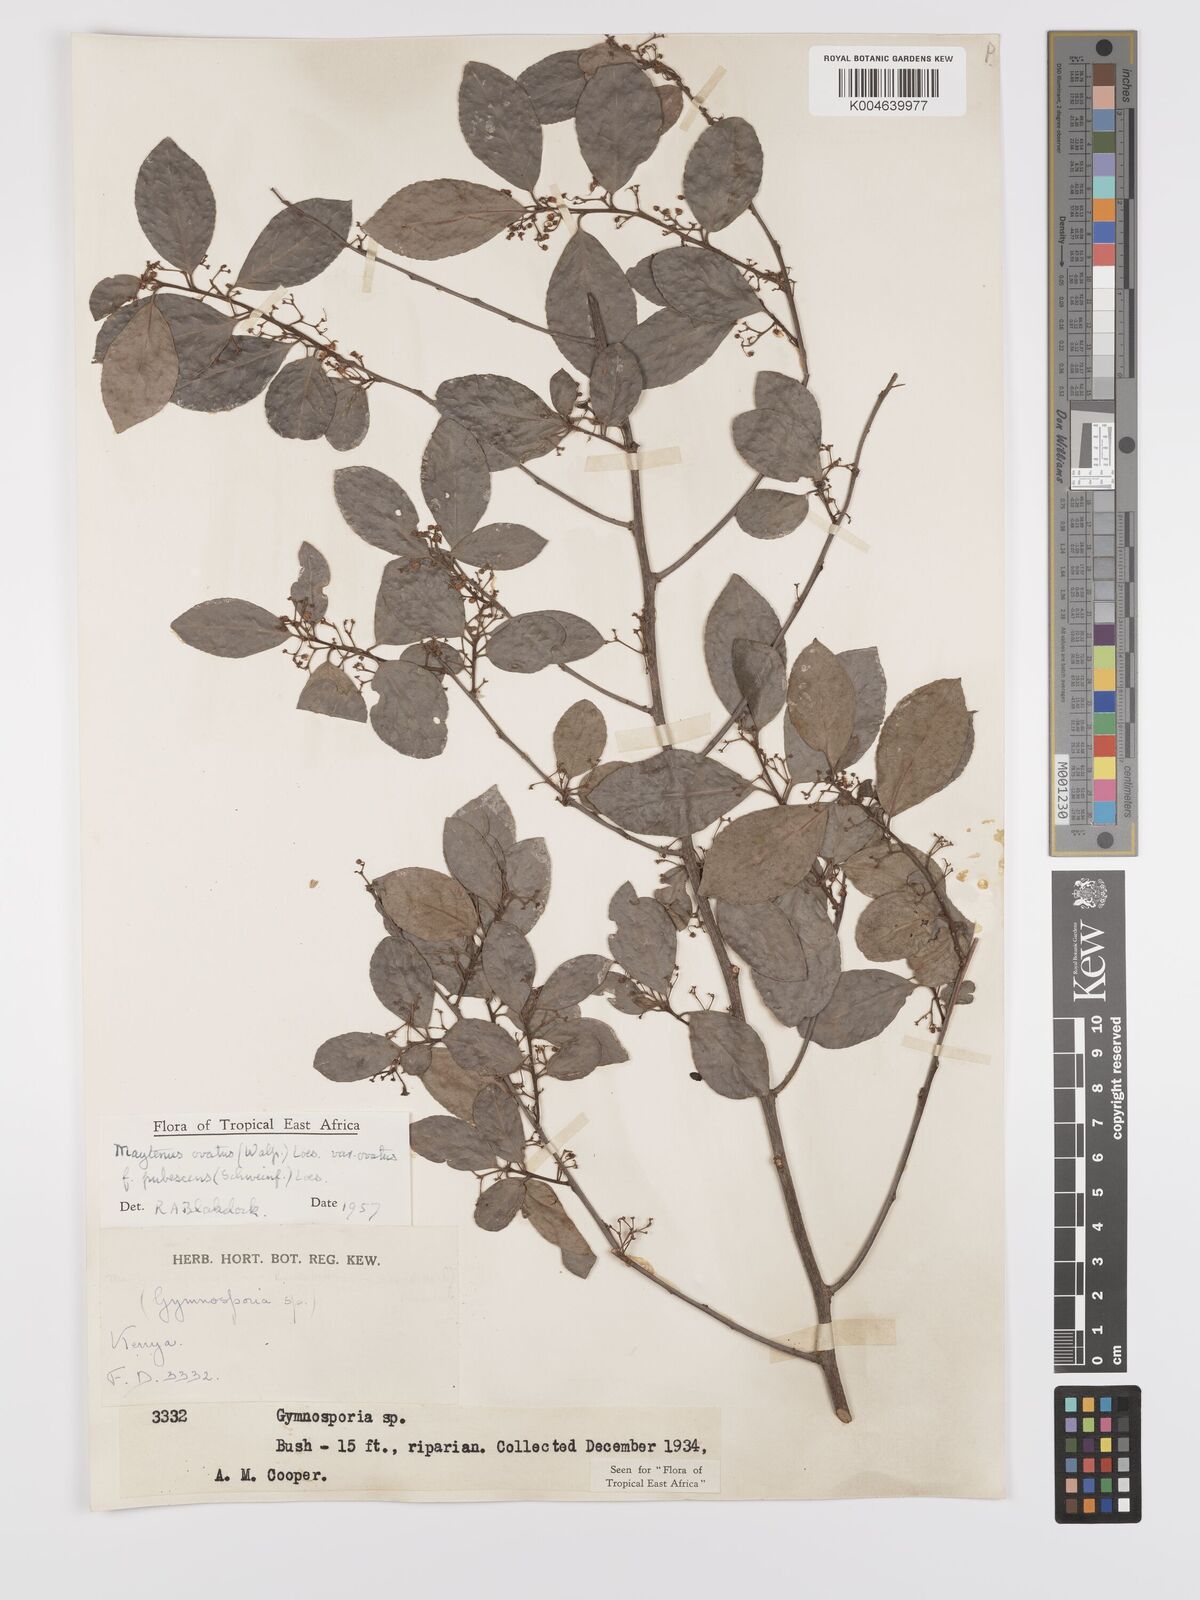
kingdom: Plantae
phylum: Tracheophyta
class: Magnoliopsida
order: Celastrales
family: Celastraceae
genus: Gymnosporia
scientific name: Gymnosporia arbutifolia
